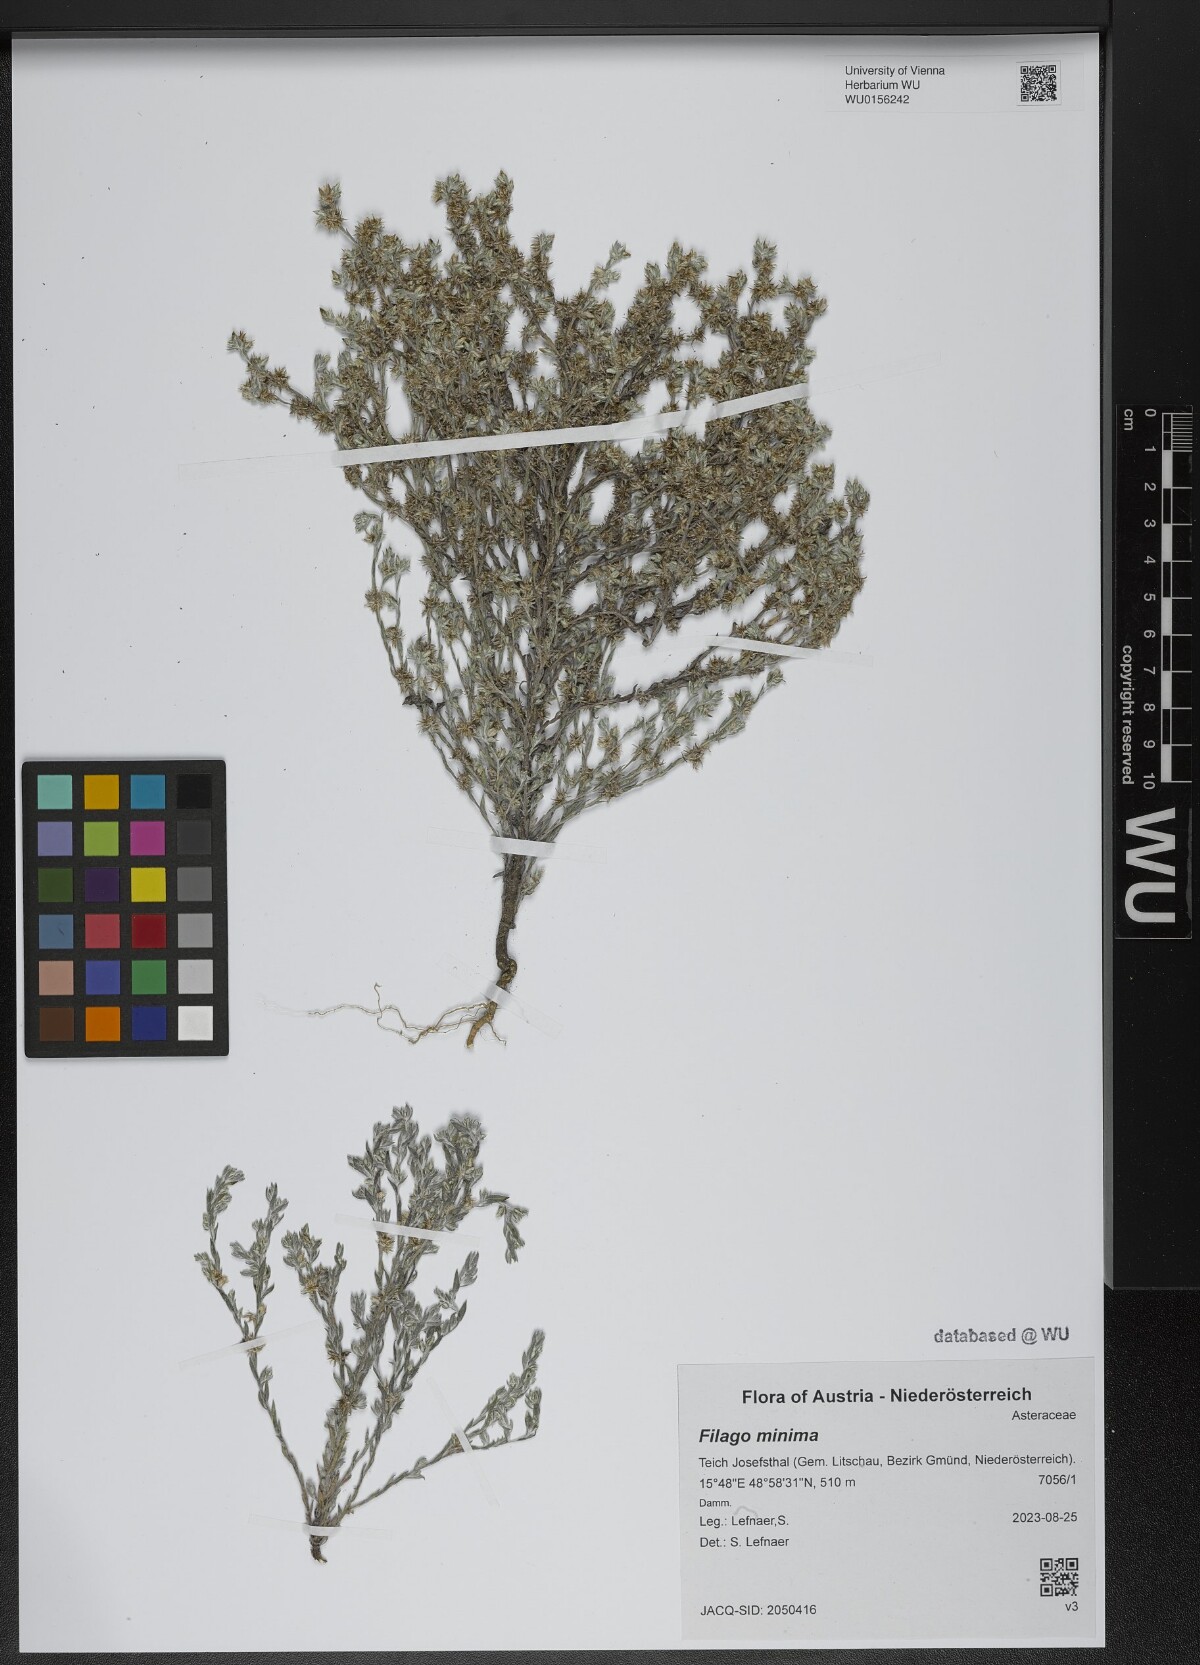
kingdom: Plantae
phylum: Tracheophyta
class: Magnoliopsida
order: Asterales
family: Asteraceae
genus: Logfia
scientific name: Logfia minima
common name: Little cottonrose
